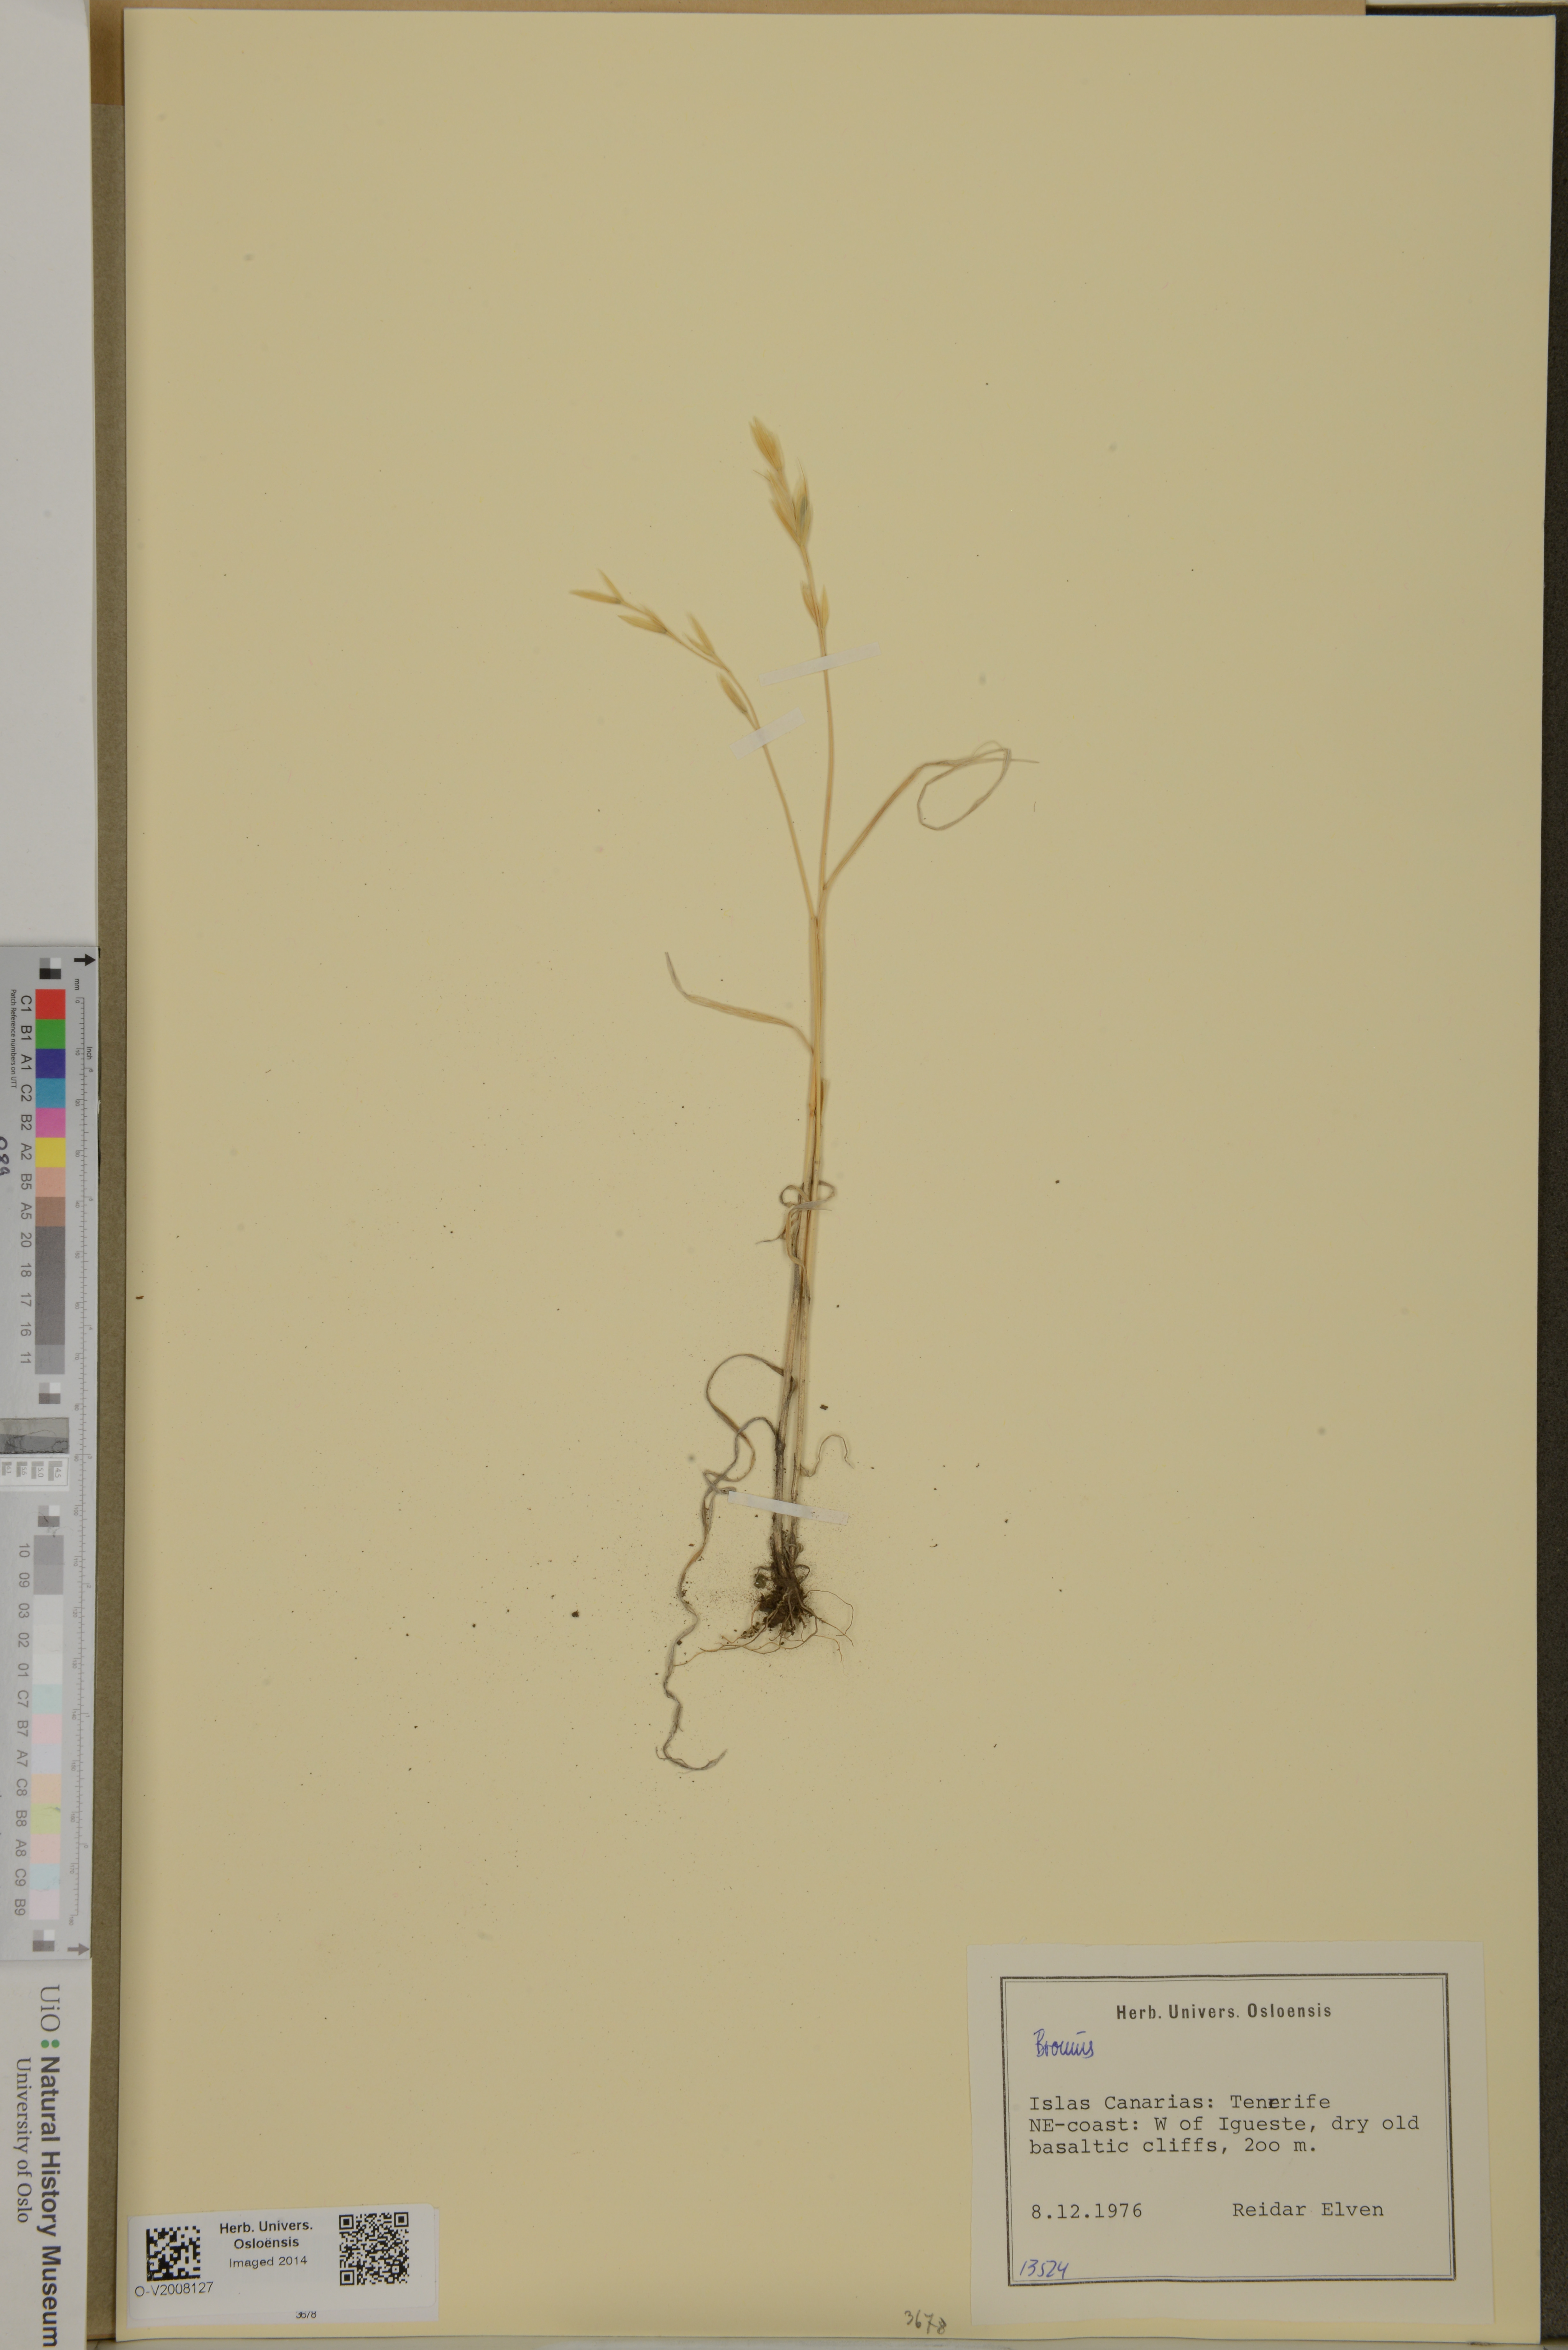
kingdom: Plantae
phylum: Tracheophyta
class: Liliopsida
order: Poales
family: Poaceae
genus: Bromus
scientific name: Bromus
